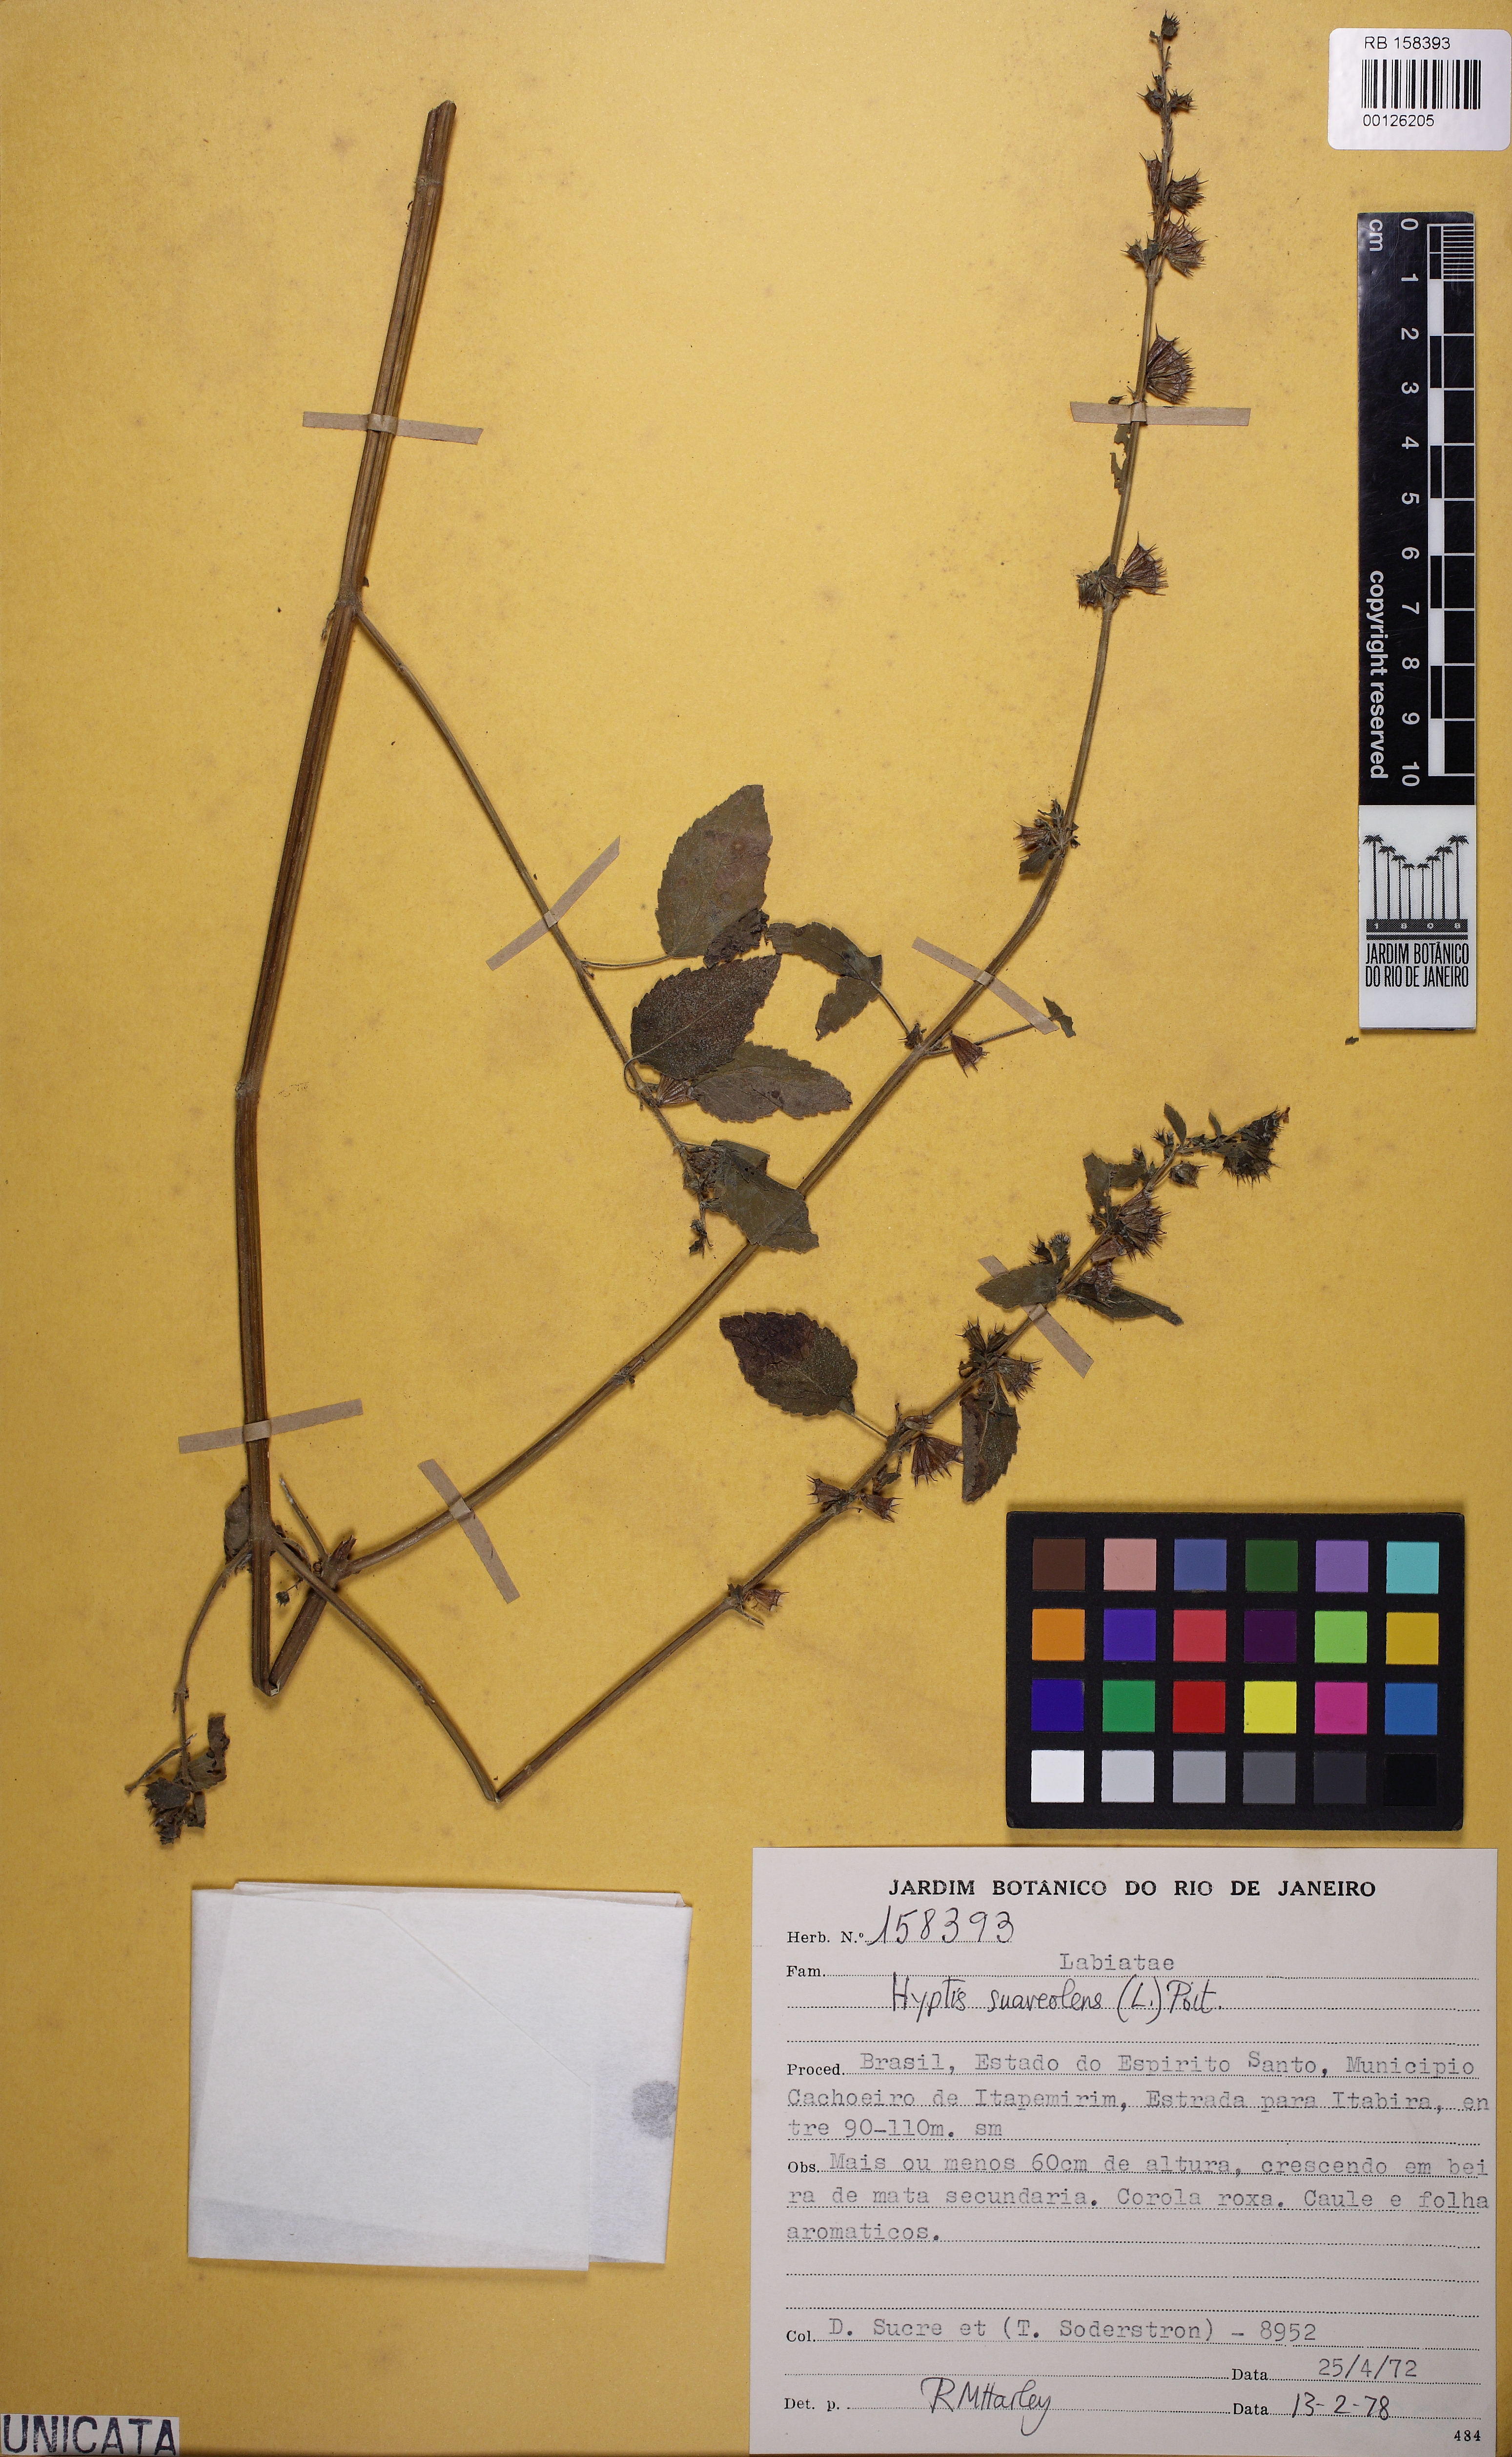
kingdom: Plantae
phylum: Tracheophyta
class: Magnoliopsida
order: Lamiales
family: Lamiaceae
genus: Mesosphaerum
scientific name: Mesosphaerum suaveolens
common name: Pignut
